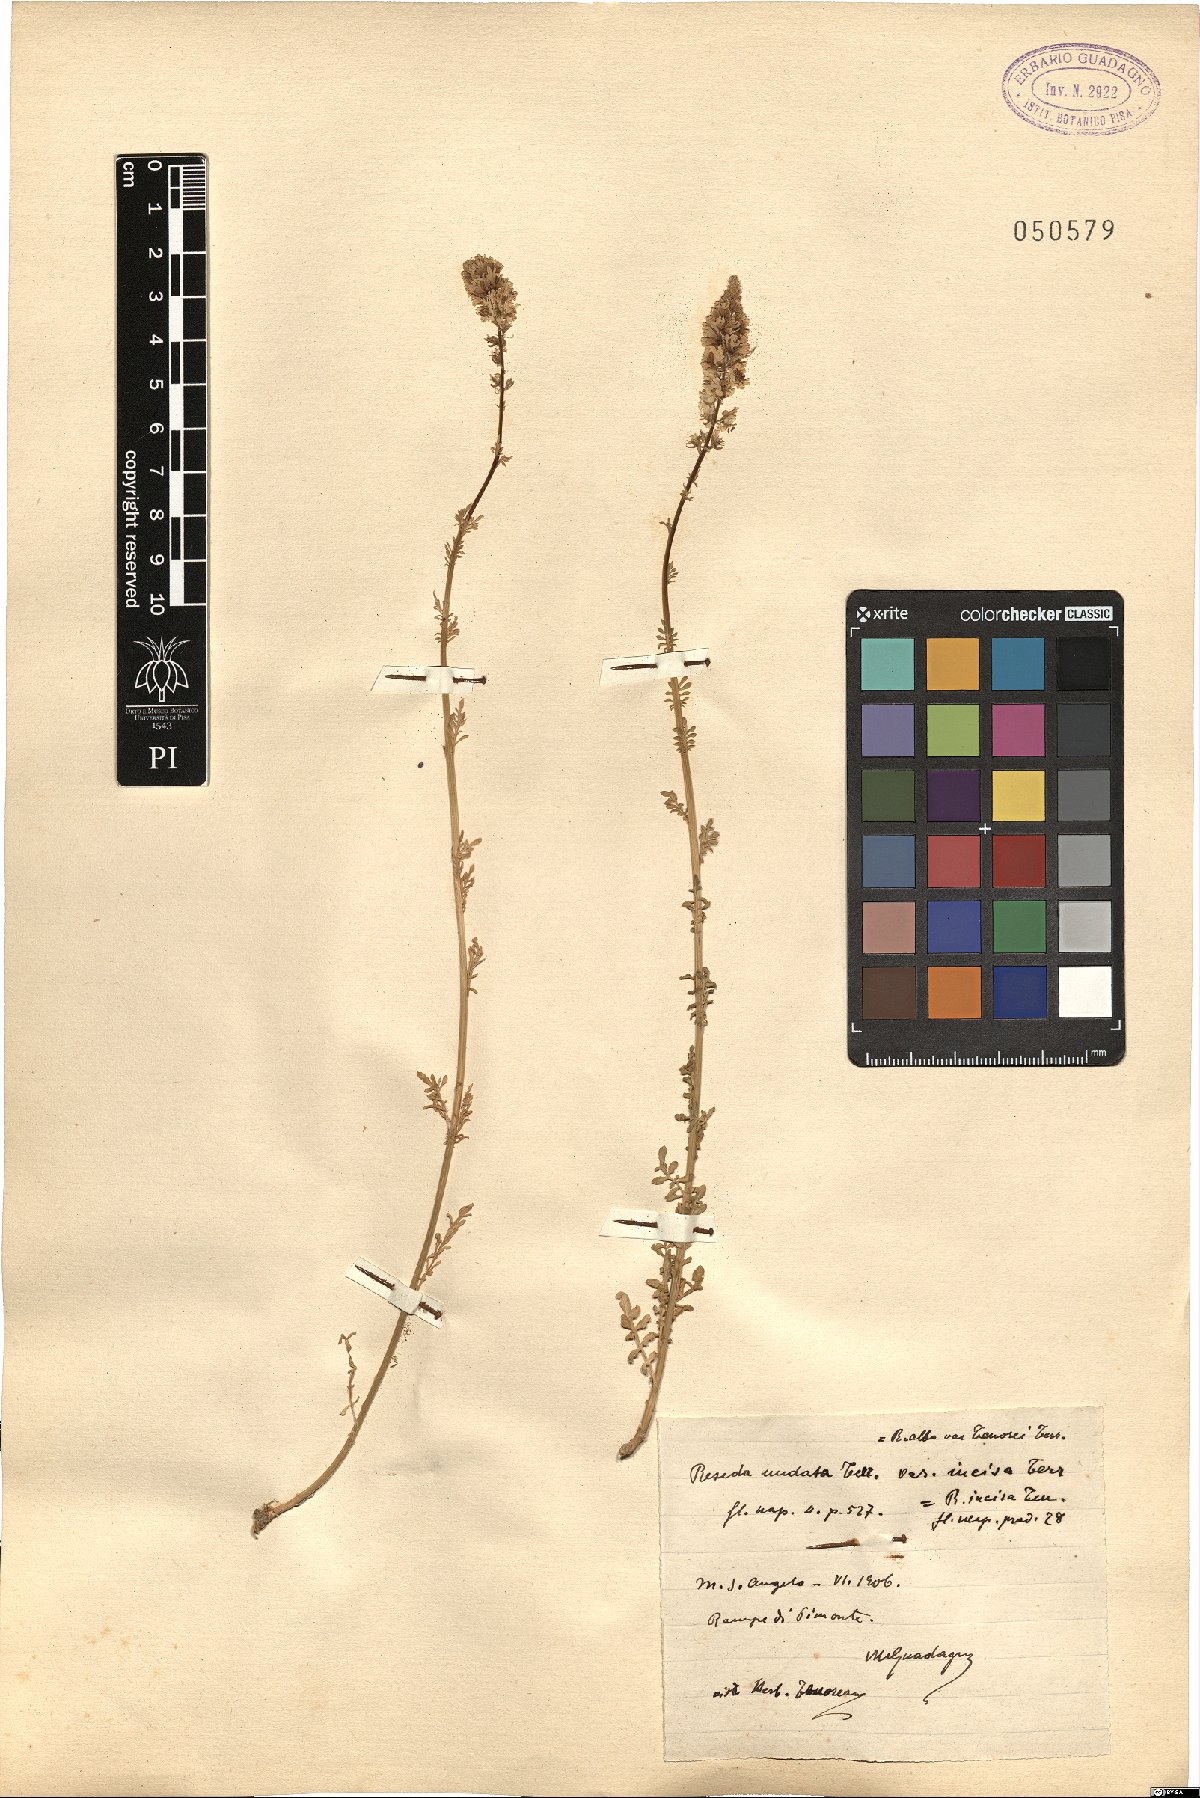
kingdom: Plantae
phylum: Tracheophyta
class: Magnoliopsida
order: Brassicales
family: Resedaceae
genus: Reseda
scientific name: Reseda alba
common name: White mignonette
